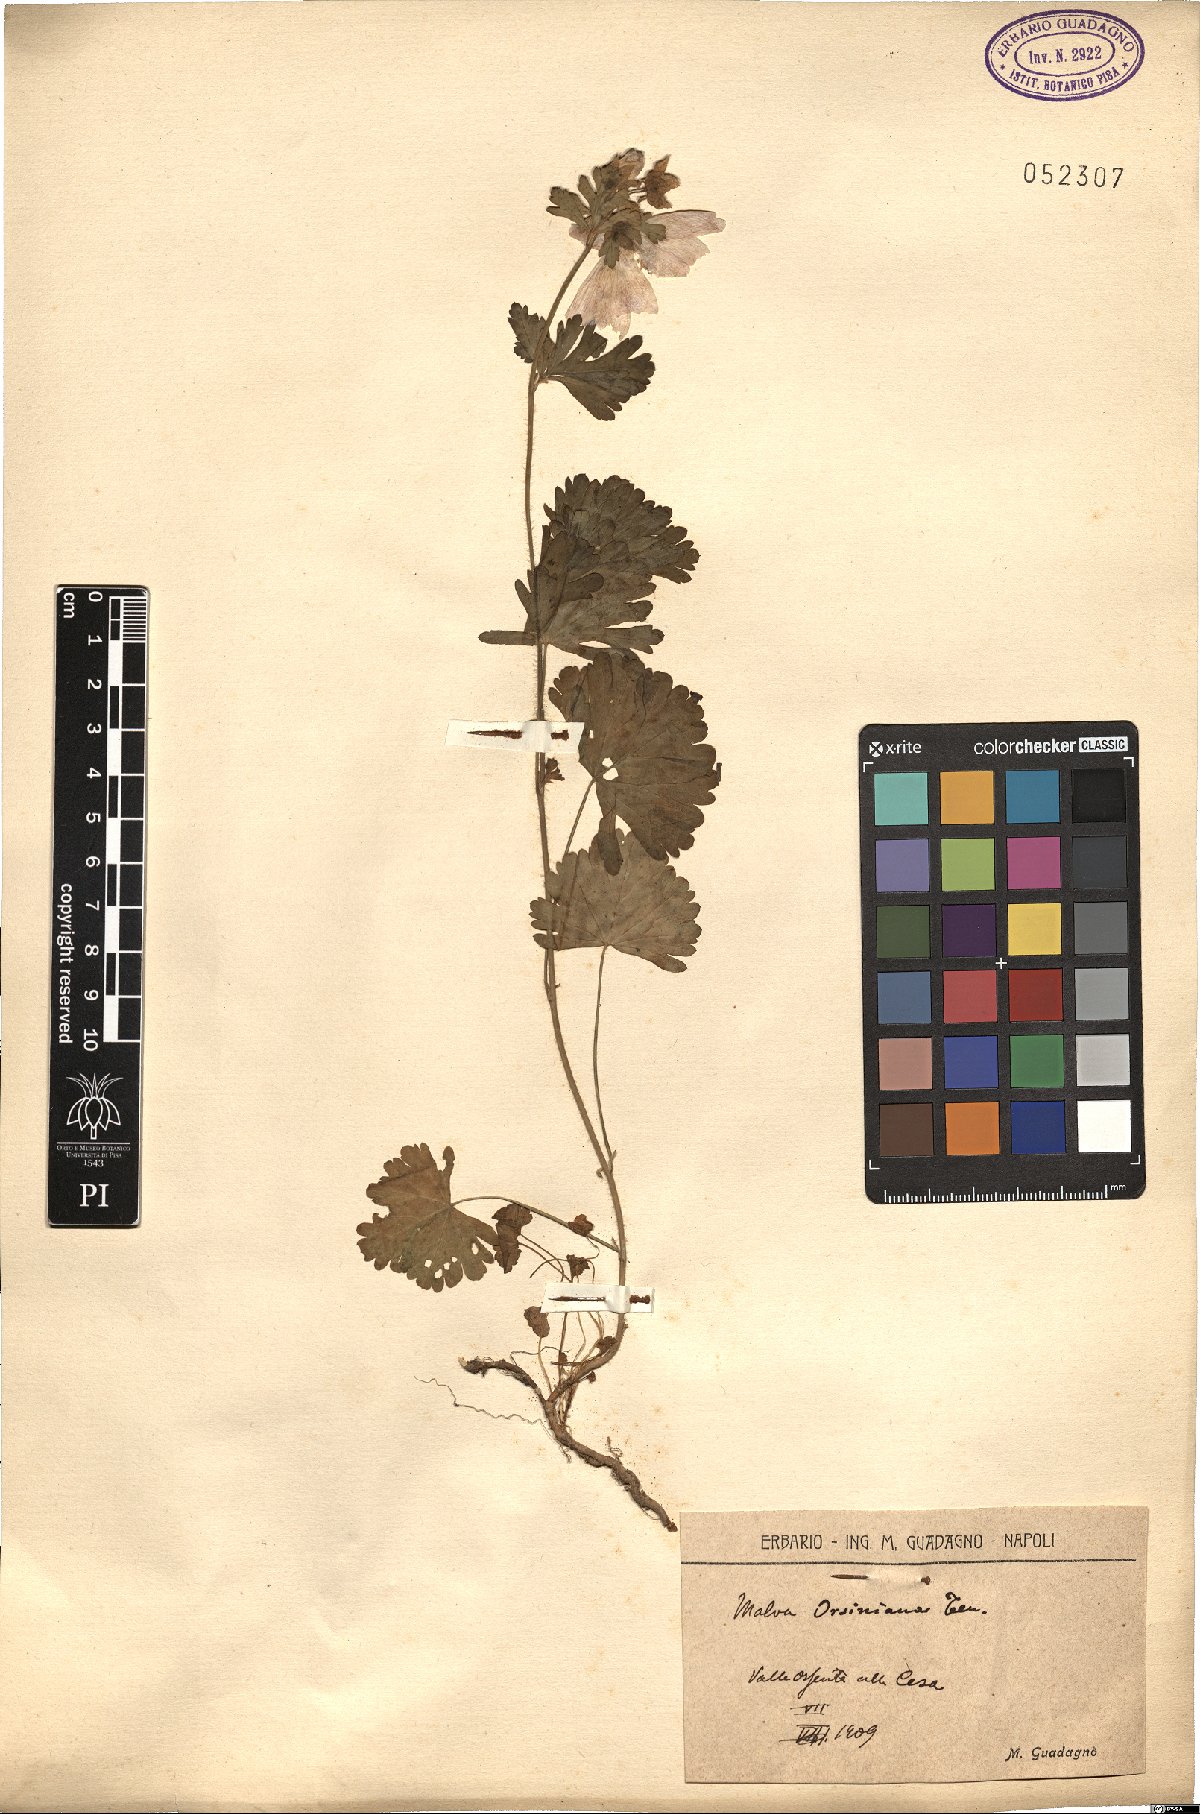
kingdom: Plantae
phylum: Tracheophyta
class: Magnoliopsida
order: Malvales
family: Malvaceae
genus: Malva
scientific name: Malva moschata
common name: Musk mallow
